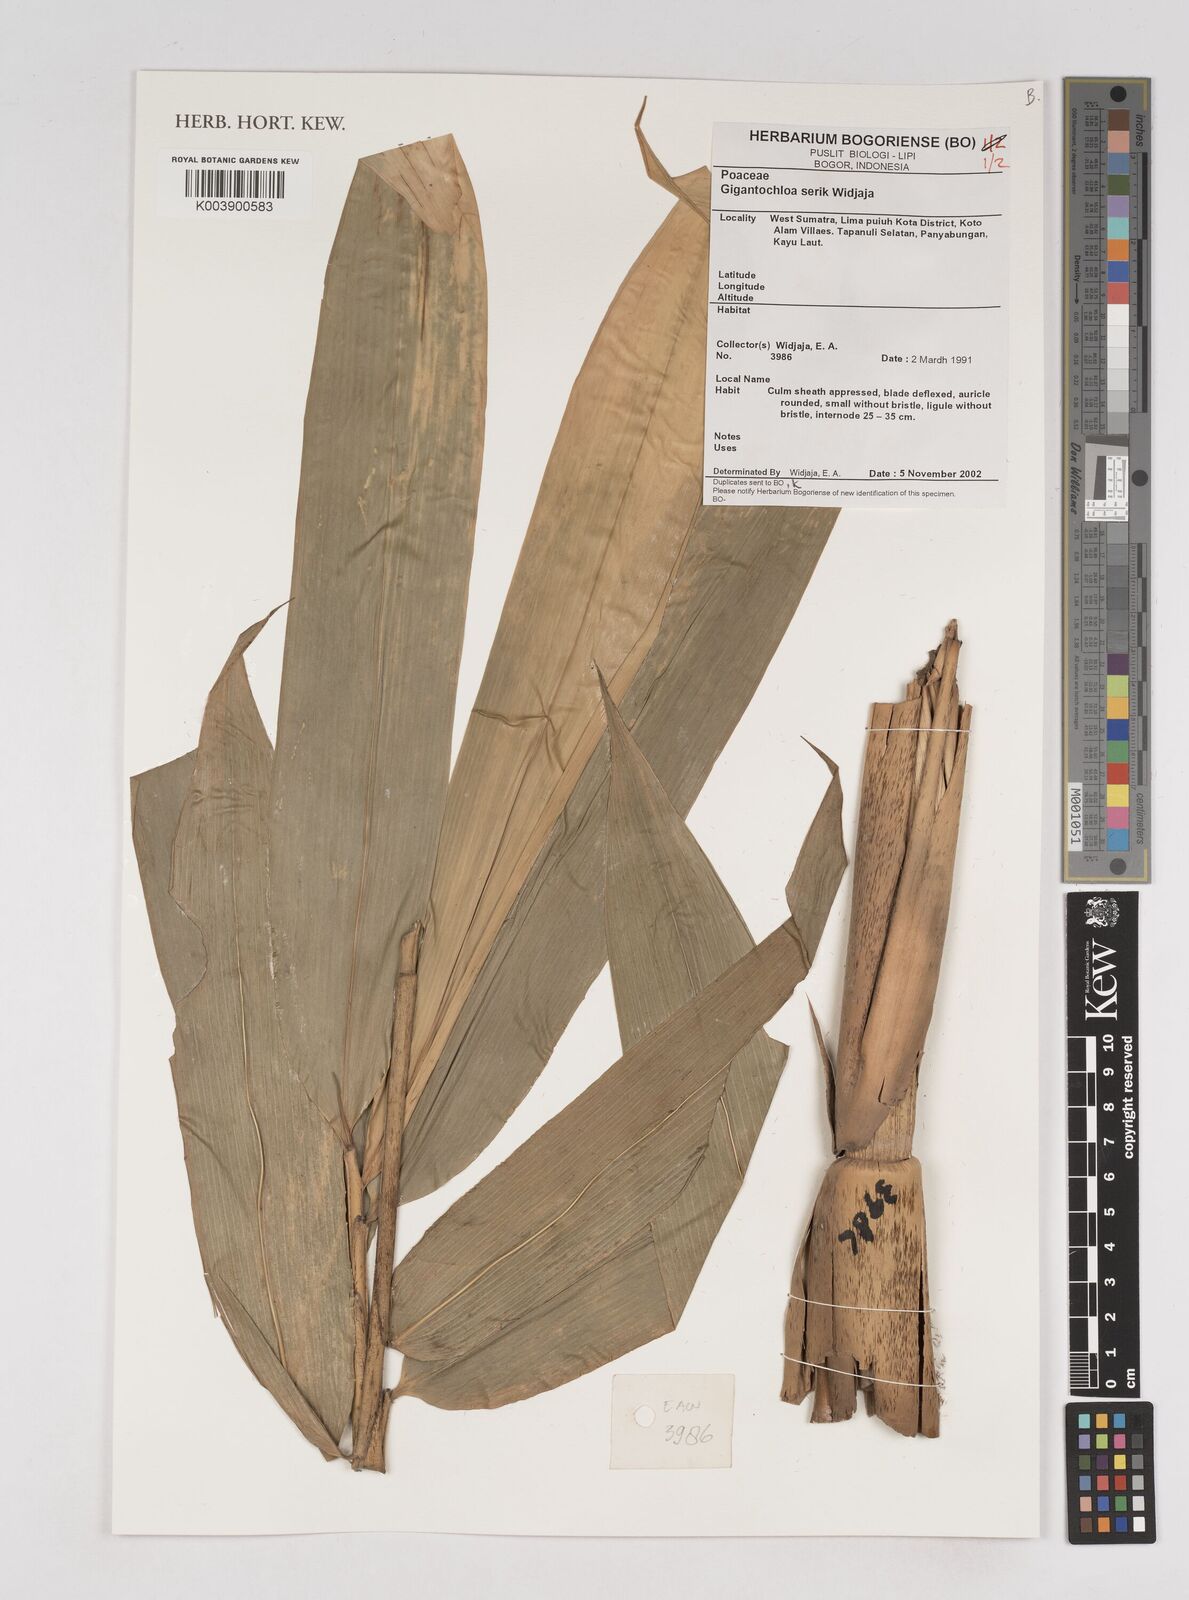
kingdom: Plantae
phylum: Tracheophyta
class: Liliopsida
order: Poales
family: Poaceae
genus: Gigantochloa
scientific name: Gigantochloa serik
